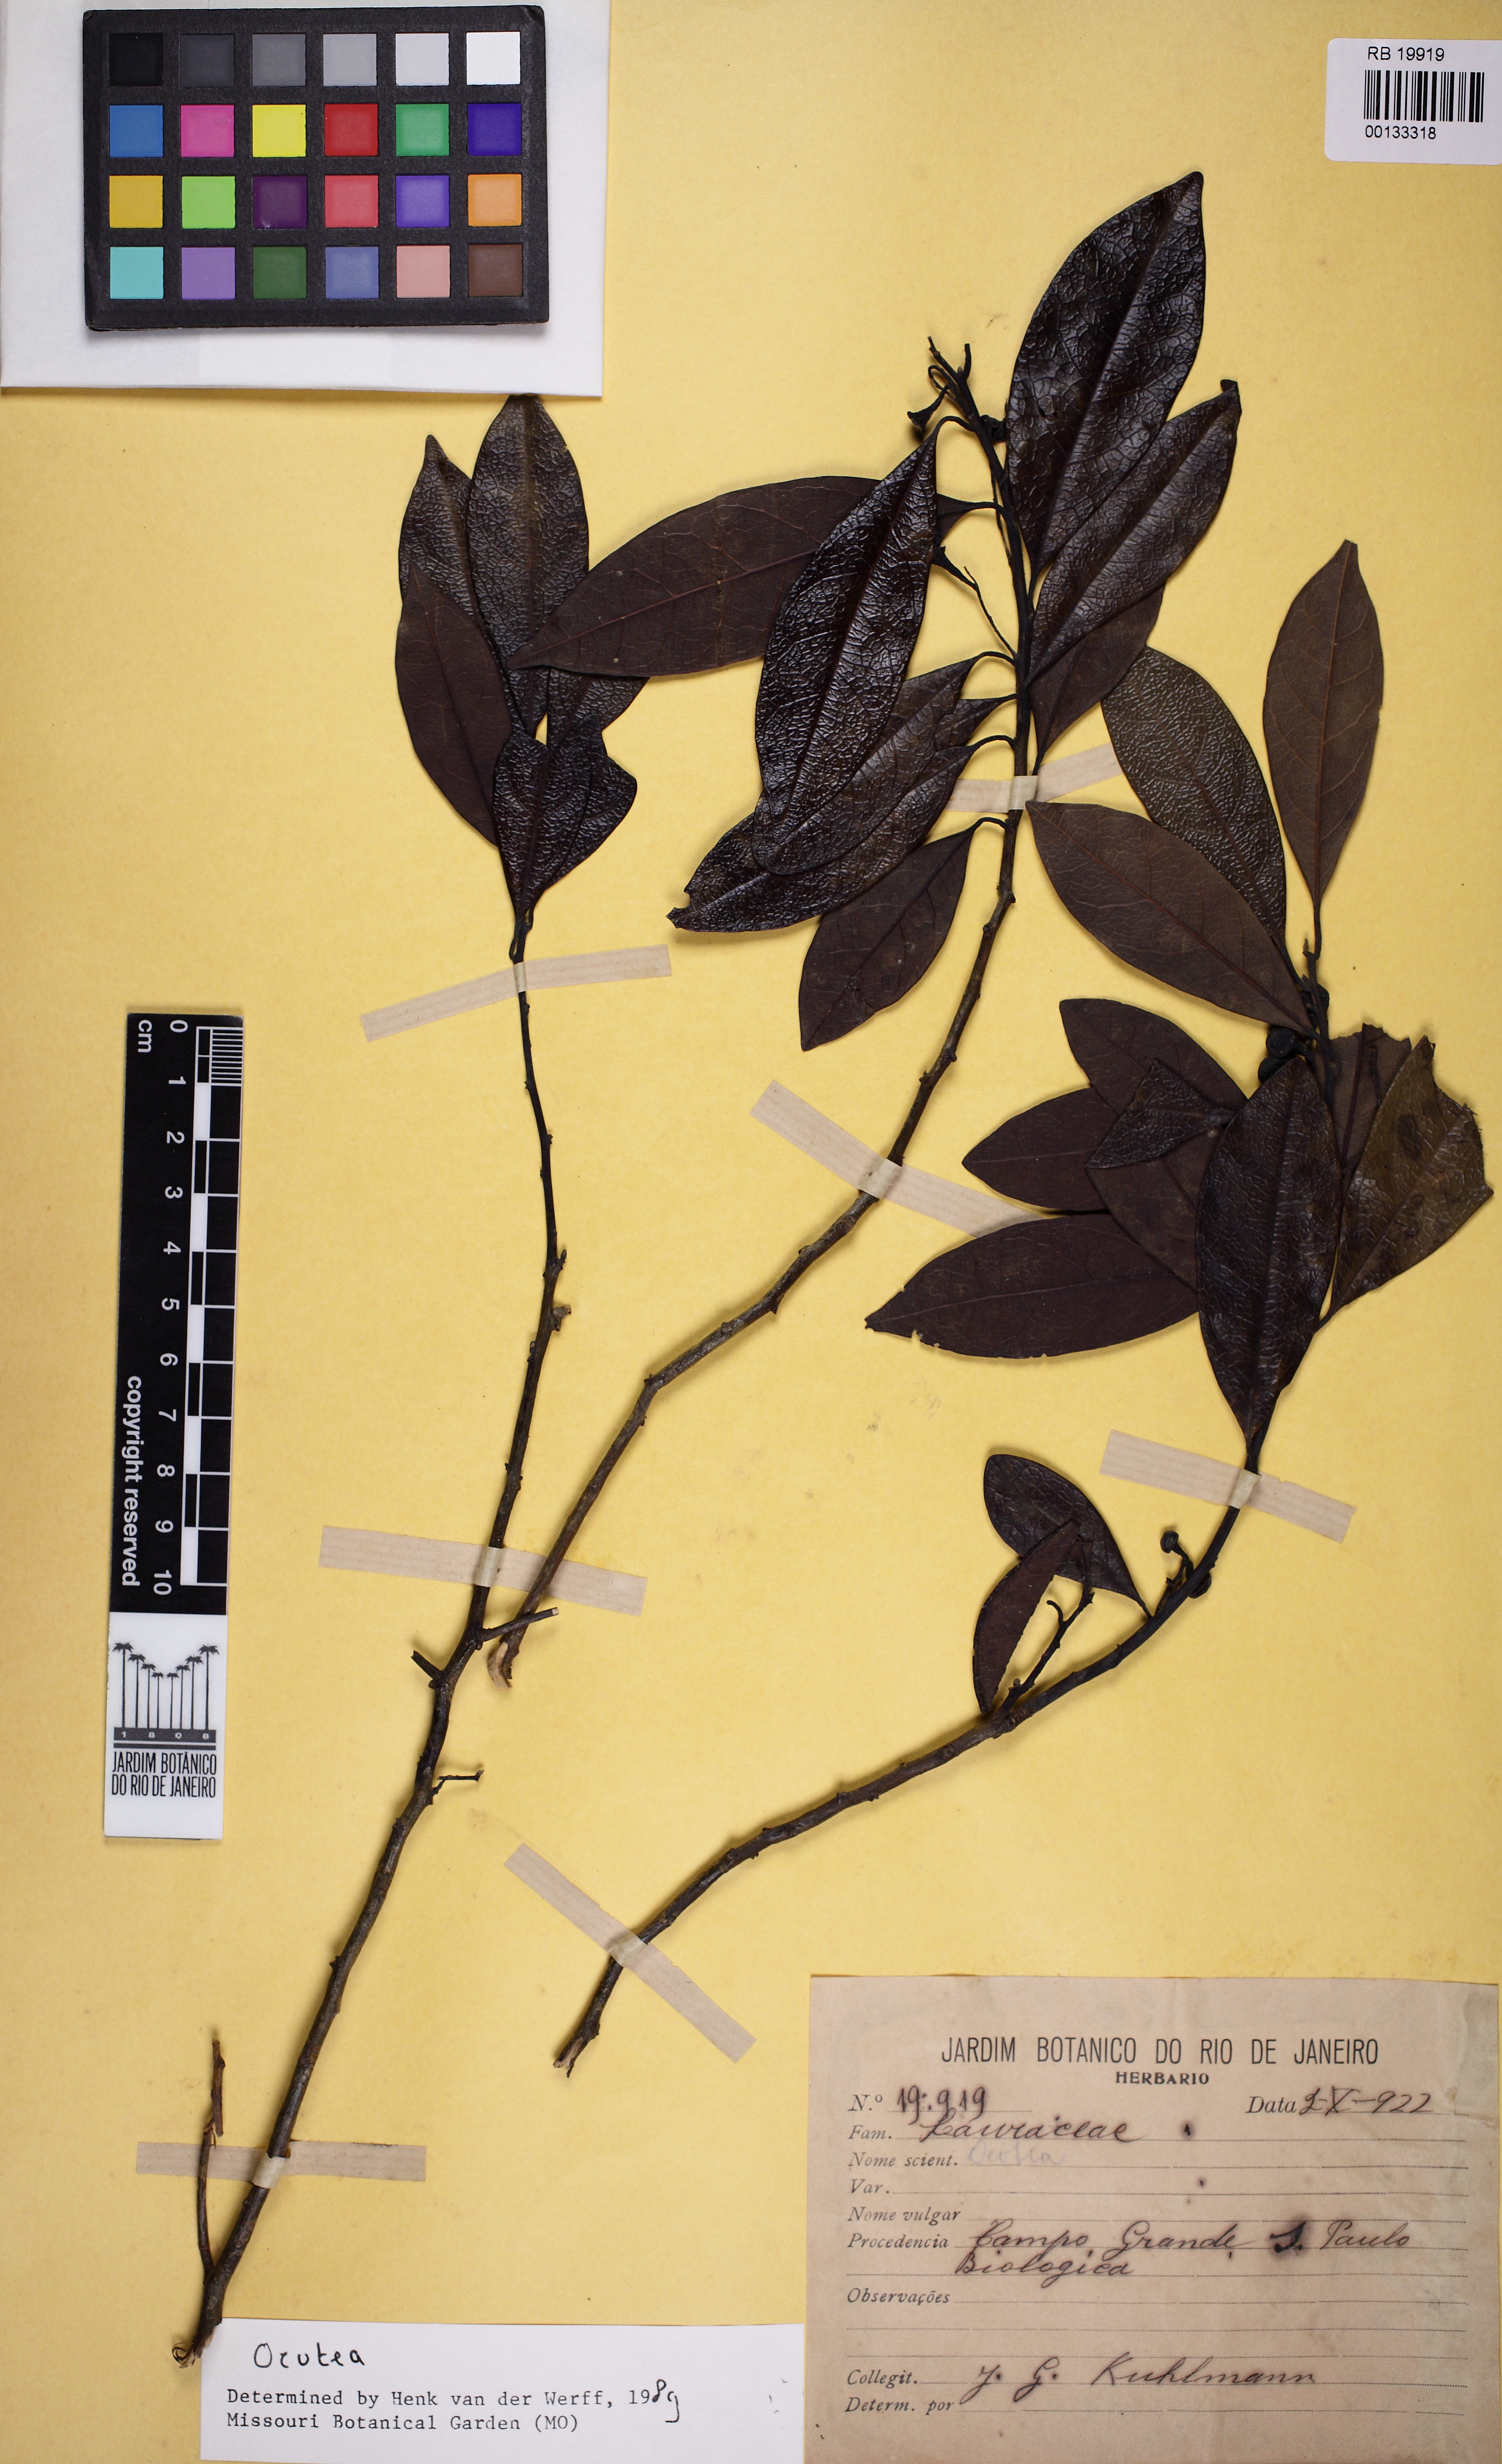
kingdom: Plantae
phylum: Tracheophyta
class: Magnoliopsida
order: Laurales
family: Lauraceae
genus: Ocotea
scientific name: Ocotea
